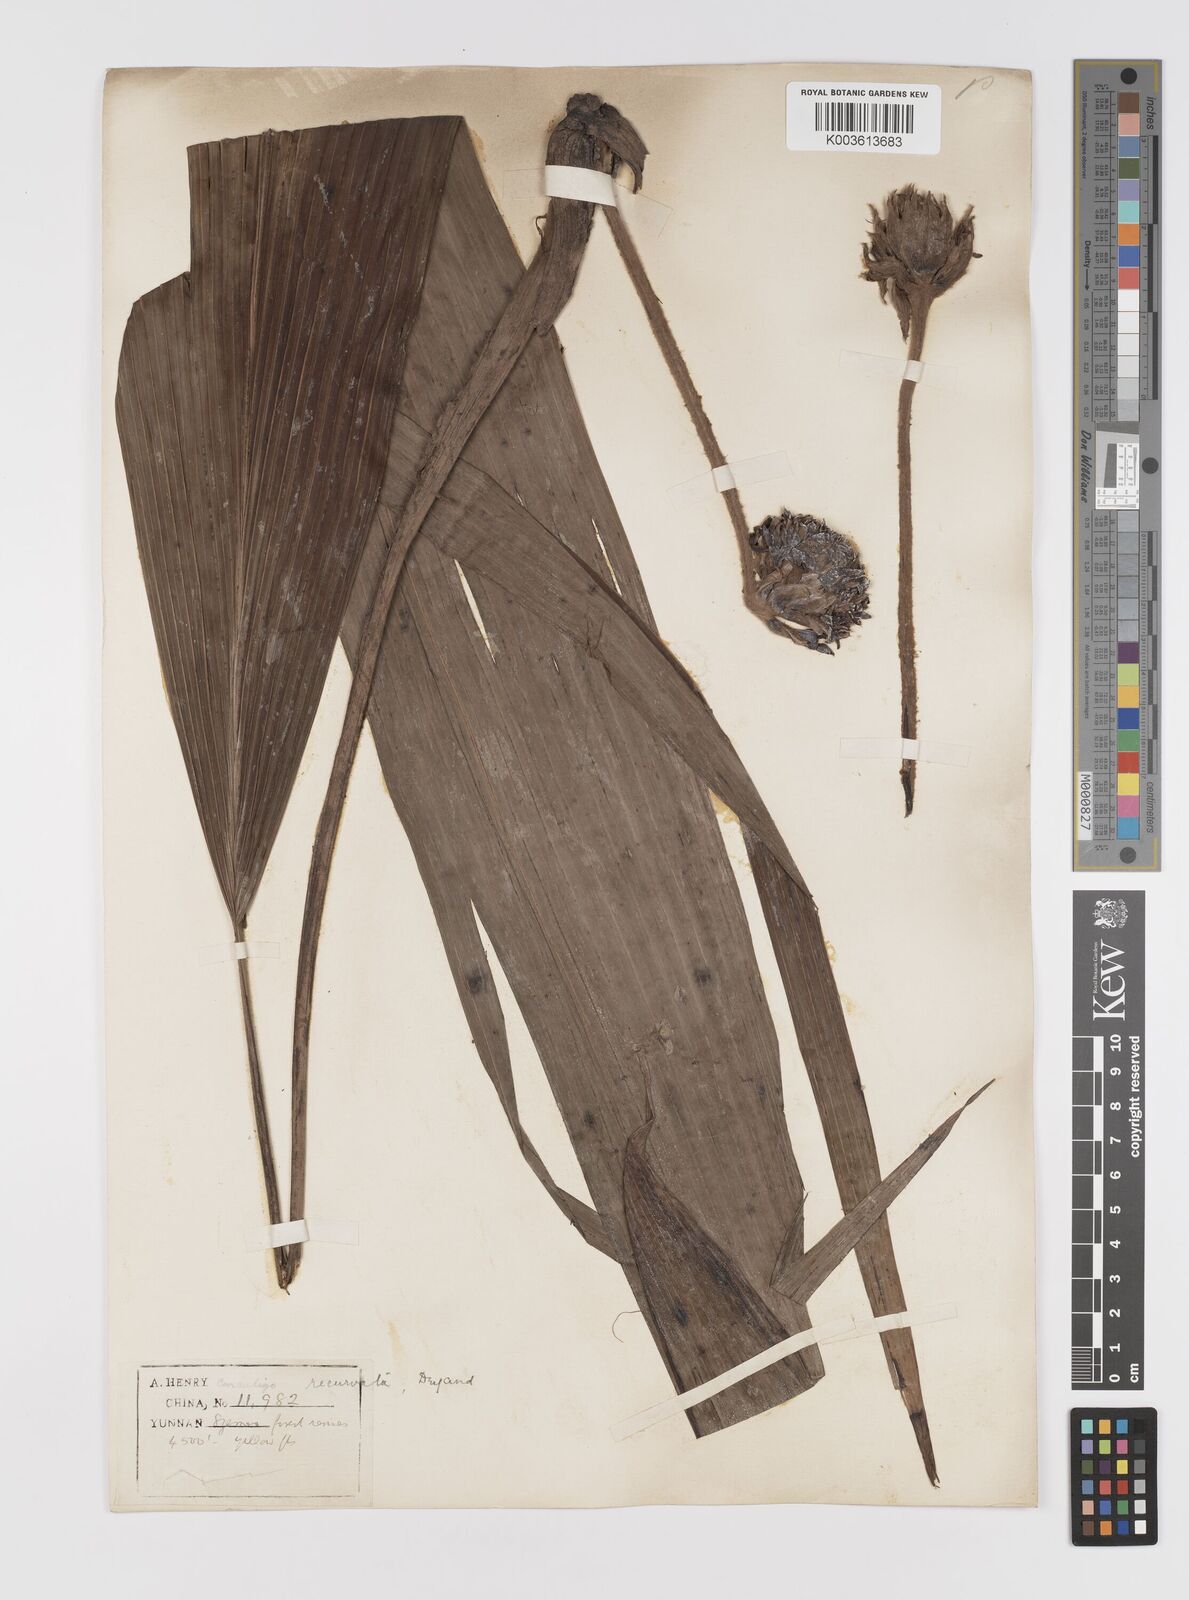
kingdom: Plantae
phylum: Tracheophyta
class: Liliopsida
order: Asparagales
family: Hypoxidaceae
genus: Curculigo
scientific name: Curculigo capitulata
